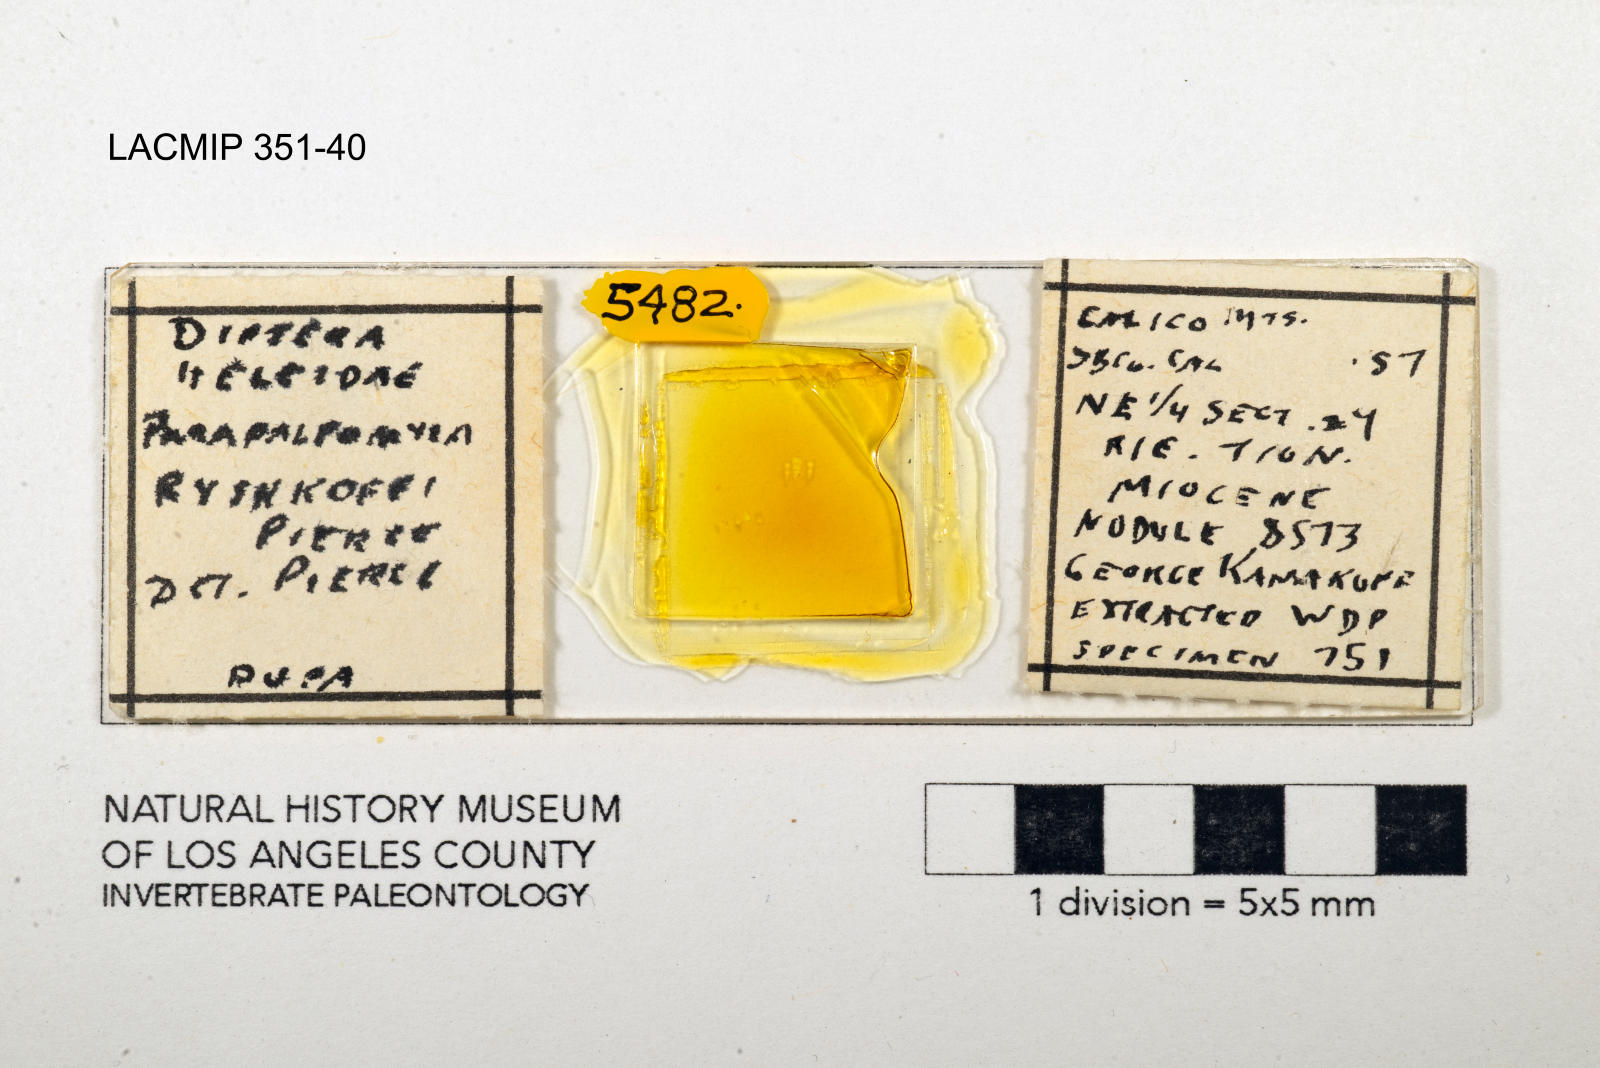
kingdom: Animalia
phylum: Arthropoda
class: Insecta
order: Diptera
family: Ceratopogonidae
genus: Palpomyia
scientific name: Palpomyia ryshkoffi
